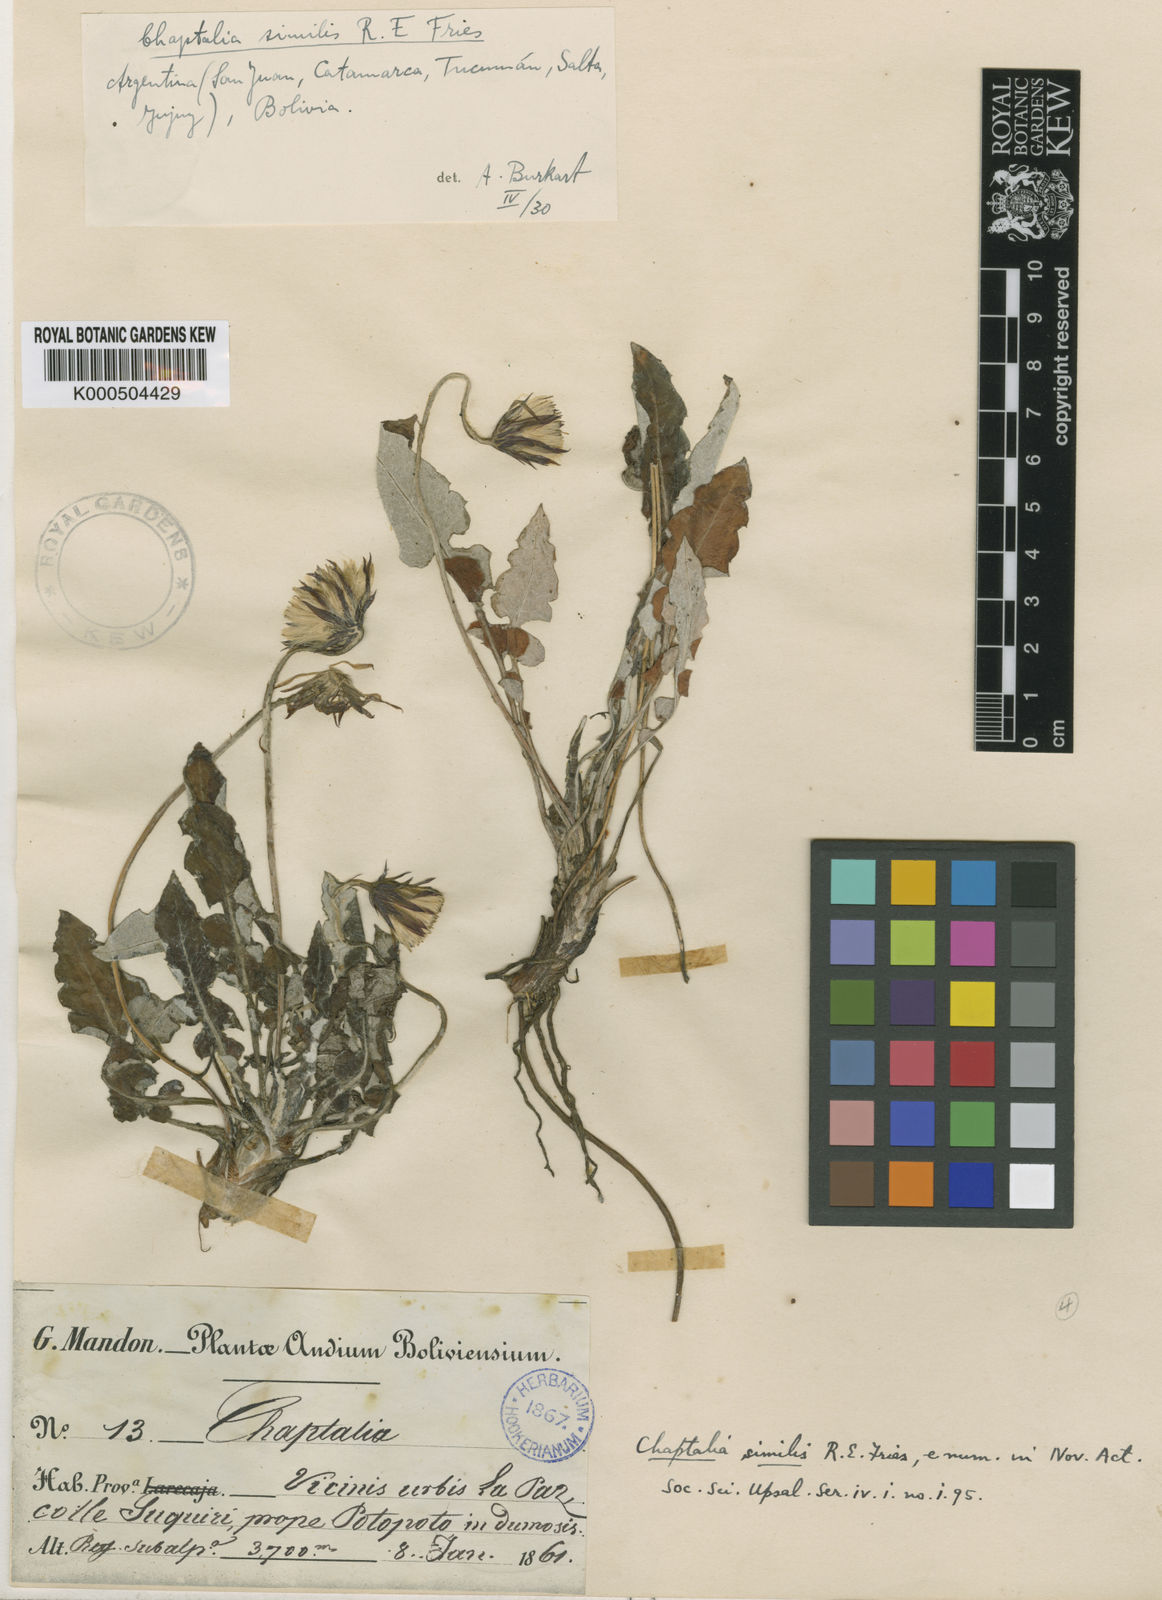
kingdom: Plantae
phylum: Tracheophyta
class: Magnoliopsida
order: Asterales
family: Asteraceae
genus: Chaptalia
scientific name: Chaptalia similis
